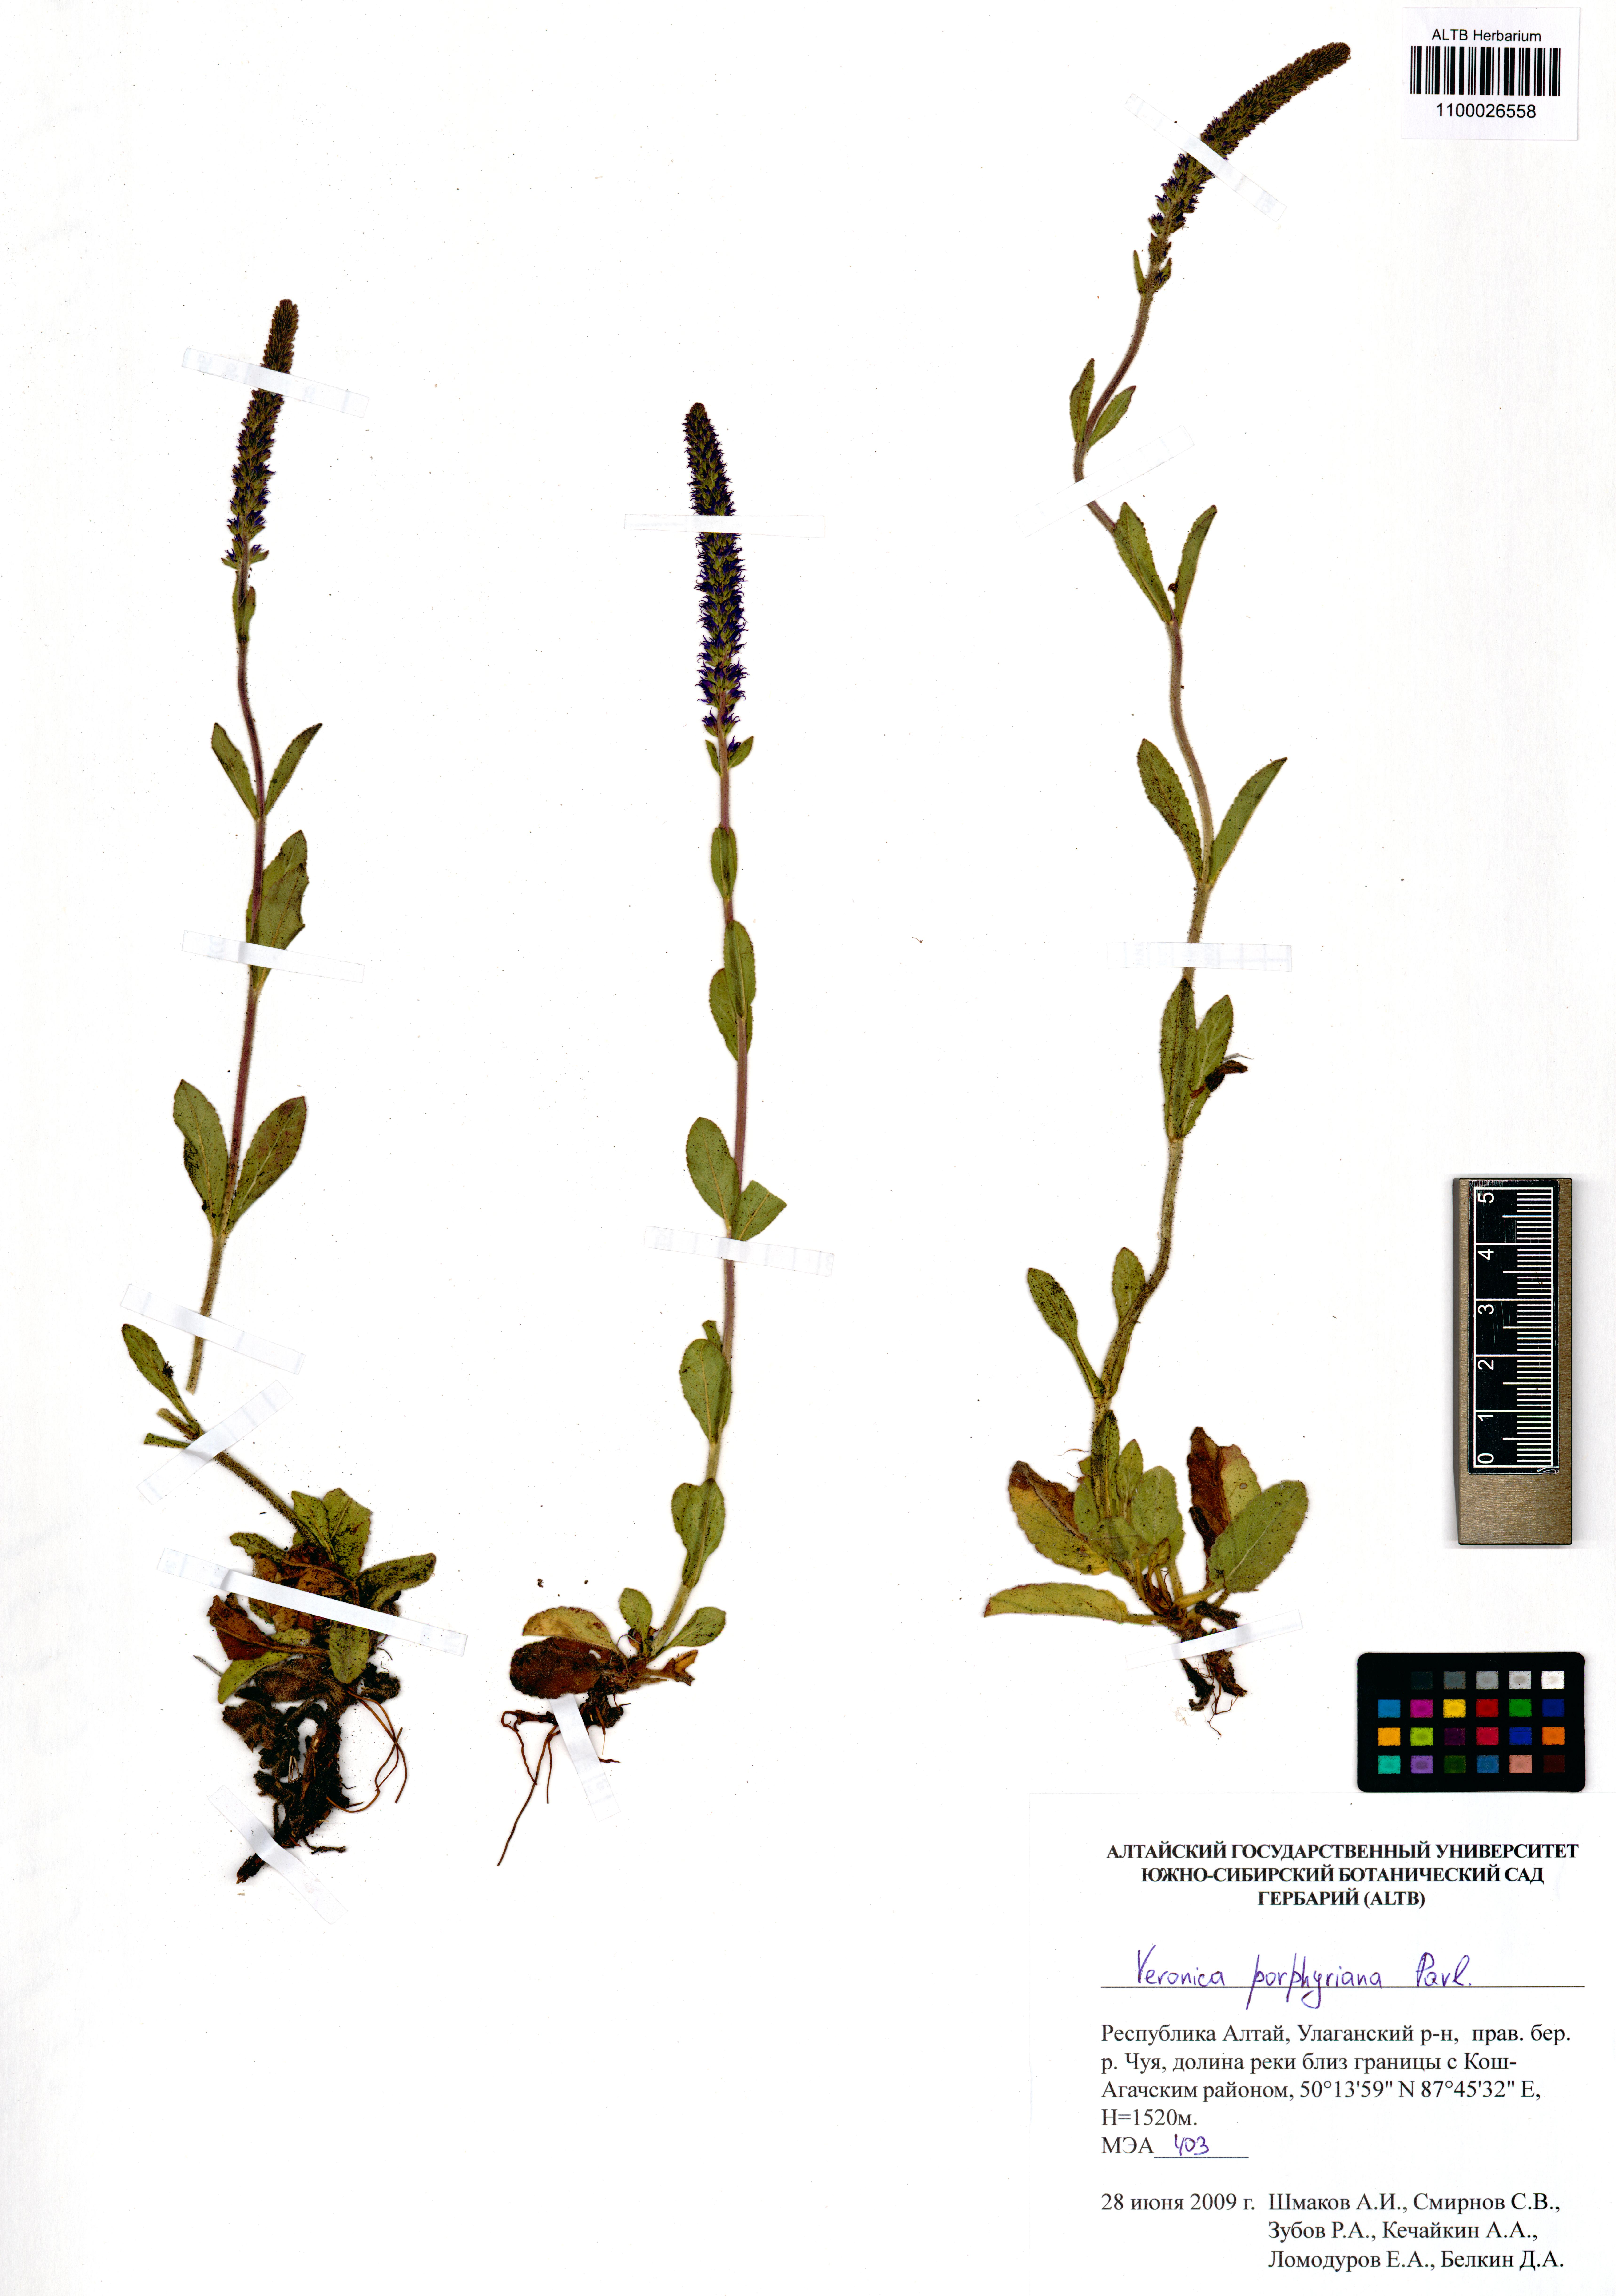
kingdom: Plantae
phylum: Tracheophyta
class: Magnoliopsida
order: Lamiales
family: Plantaginaceae
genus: Veronica
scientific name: Veronica porphyriana
